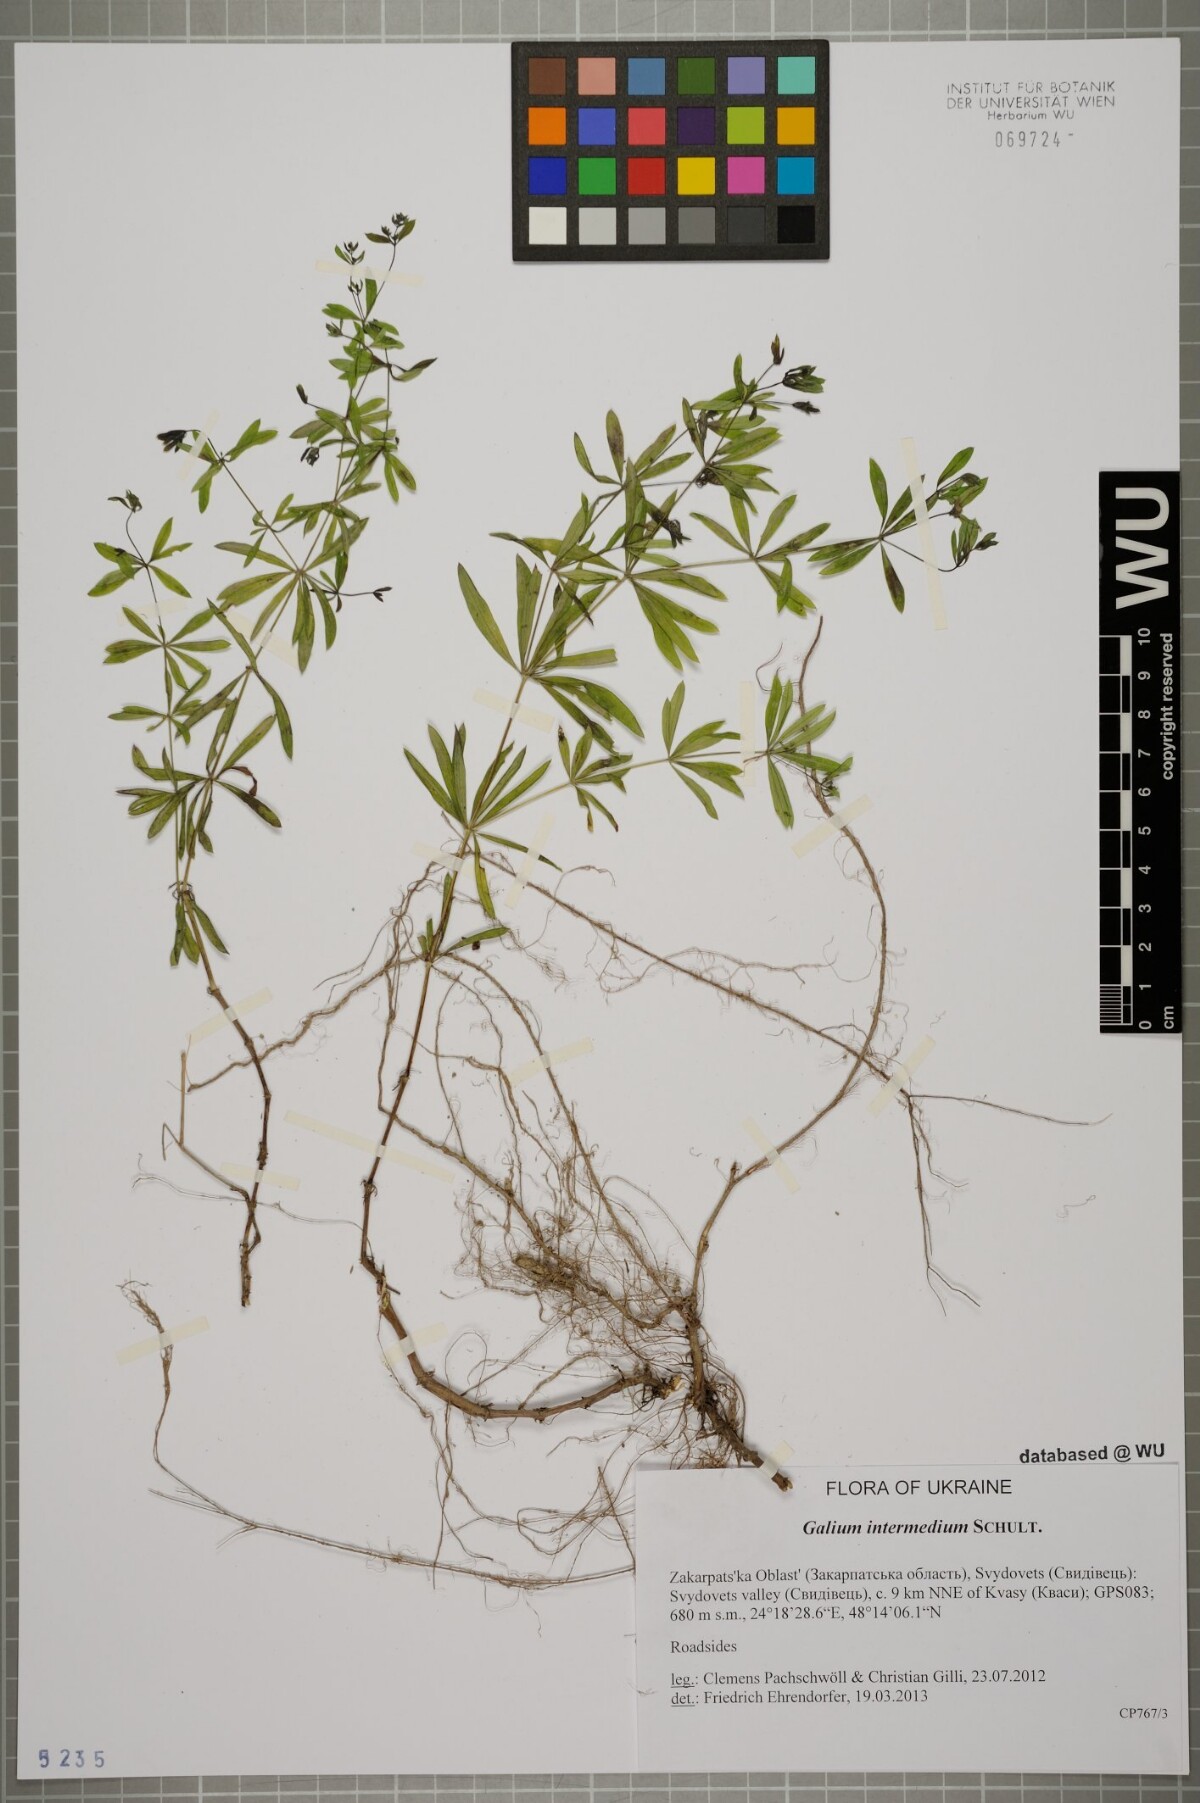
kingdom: Plantae
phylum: Tracheophyta
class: Magnoliopsida
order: Gentianales
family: Rubiaceae
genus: Galium
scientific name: Galium intermedium
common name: Bedstraw
